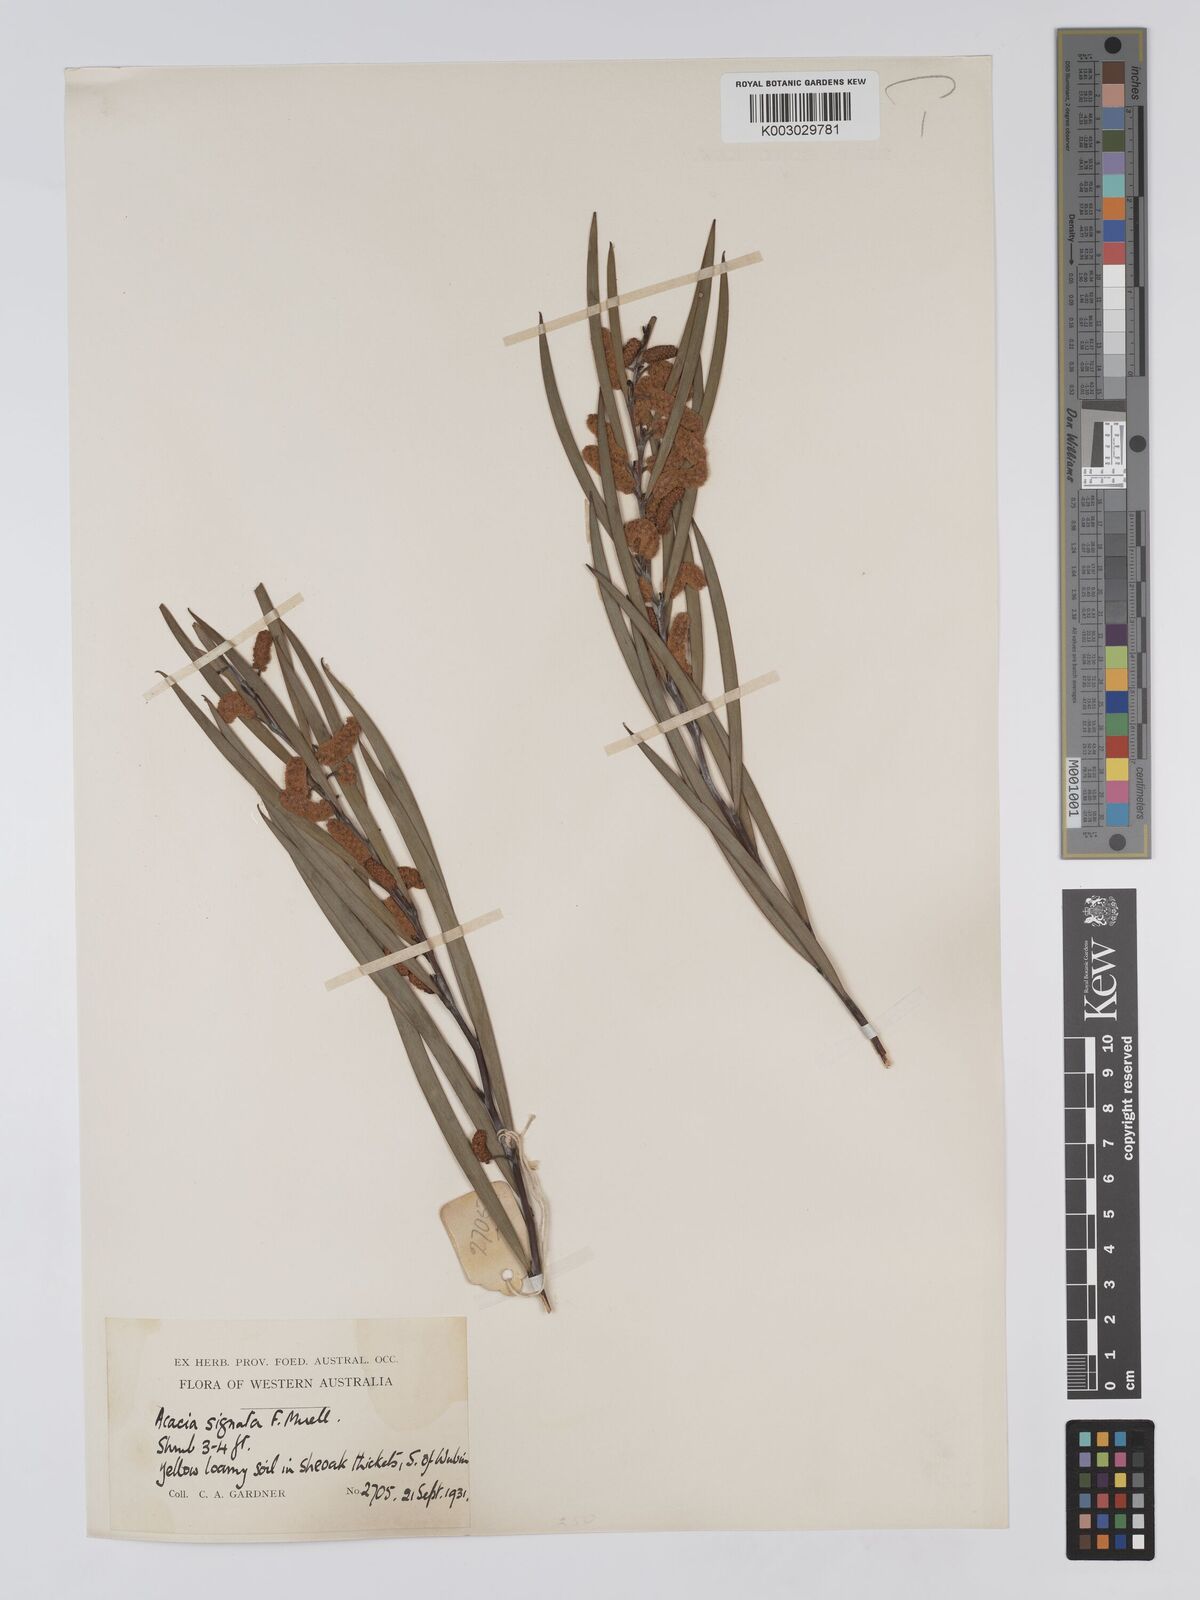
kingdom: Plantae
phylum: Tracheophyta
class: Magnoliopsida
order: Fabales
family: Fabaceae
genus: Acacia
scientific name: Acacia signata
